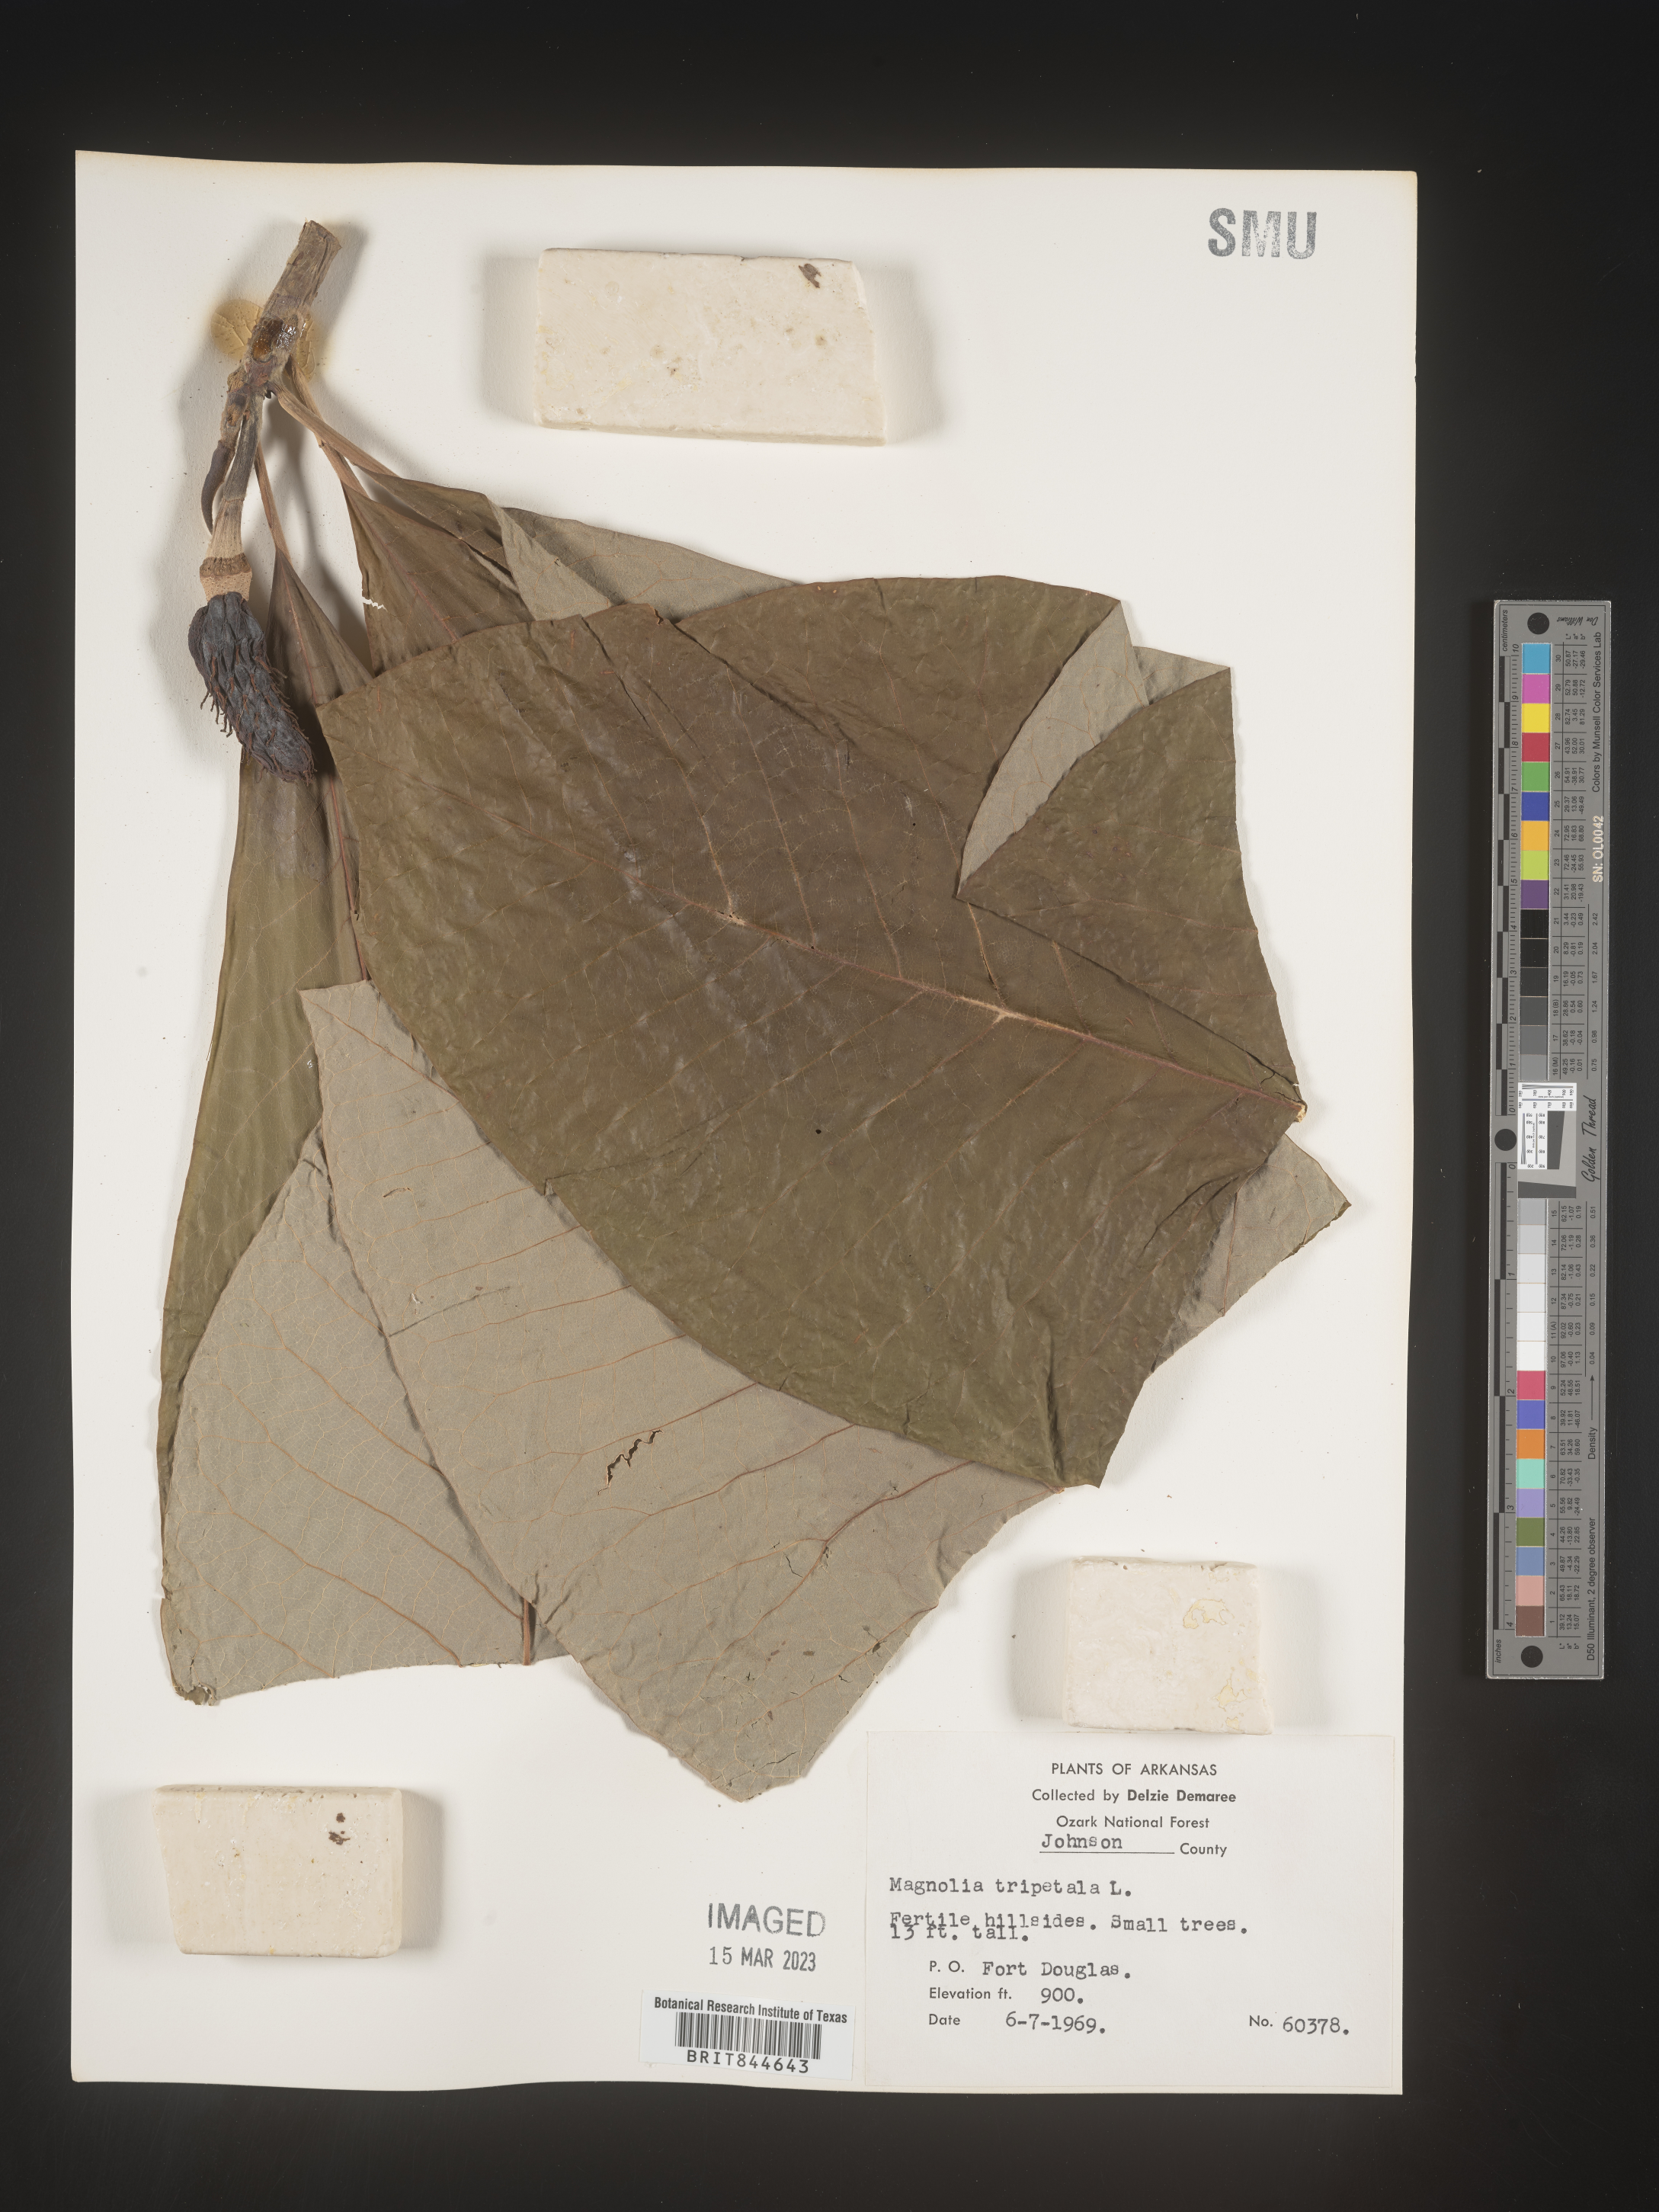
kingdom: Plantae
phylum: Tracheophyta
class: Magnoliopsida
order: Magnoliales
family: Magnoliaceae
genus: Magnolia
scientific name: Magnolia tripetala
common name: Umbrella magnolia
